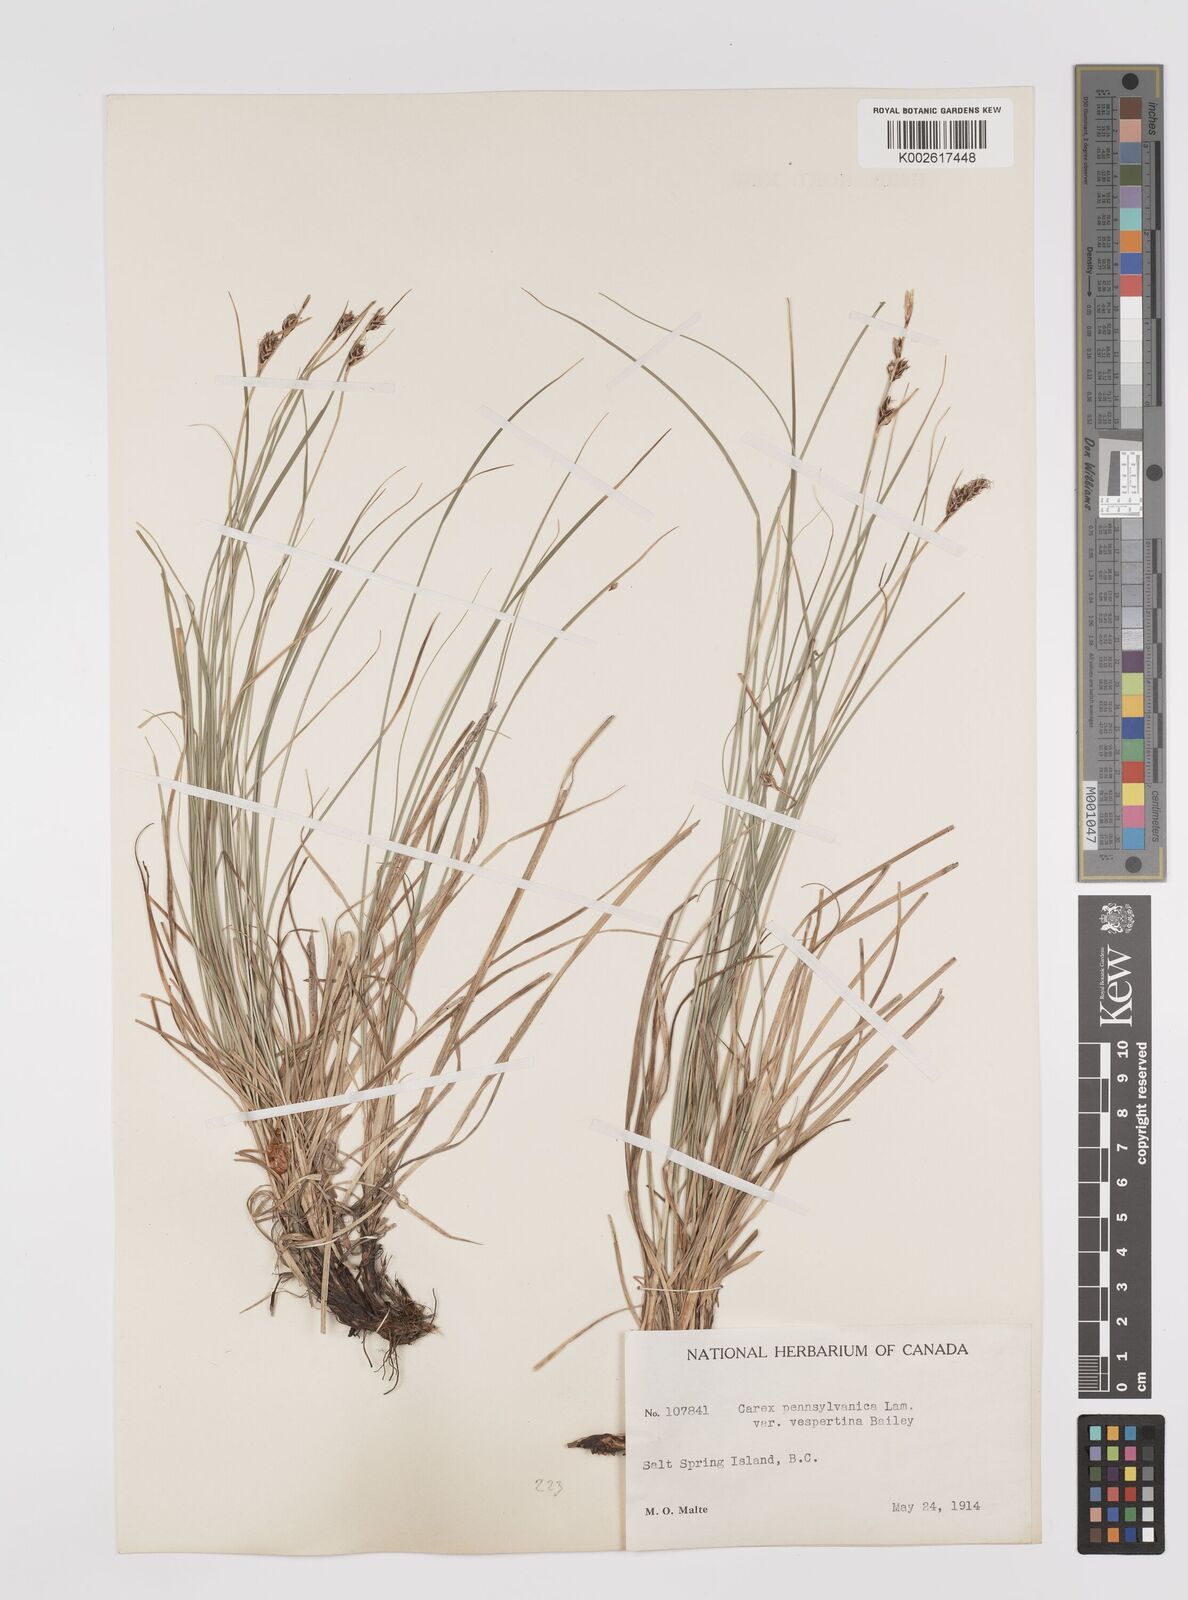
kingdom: Plantae
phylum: Tracheophyta
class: Liliopsida
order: Poales
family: Cyperaceae
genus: Carex
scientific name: Carex pensylvanica
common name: Common oak sedge
